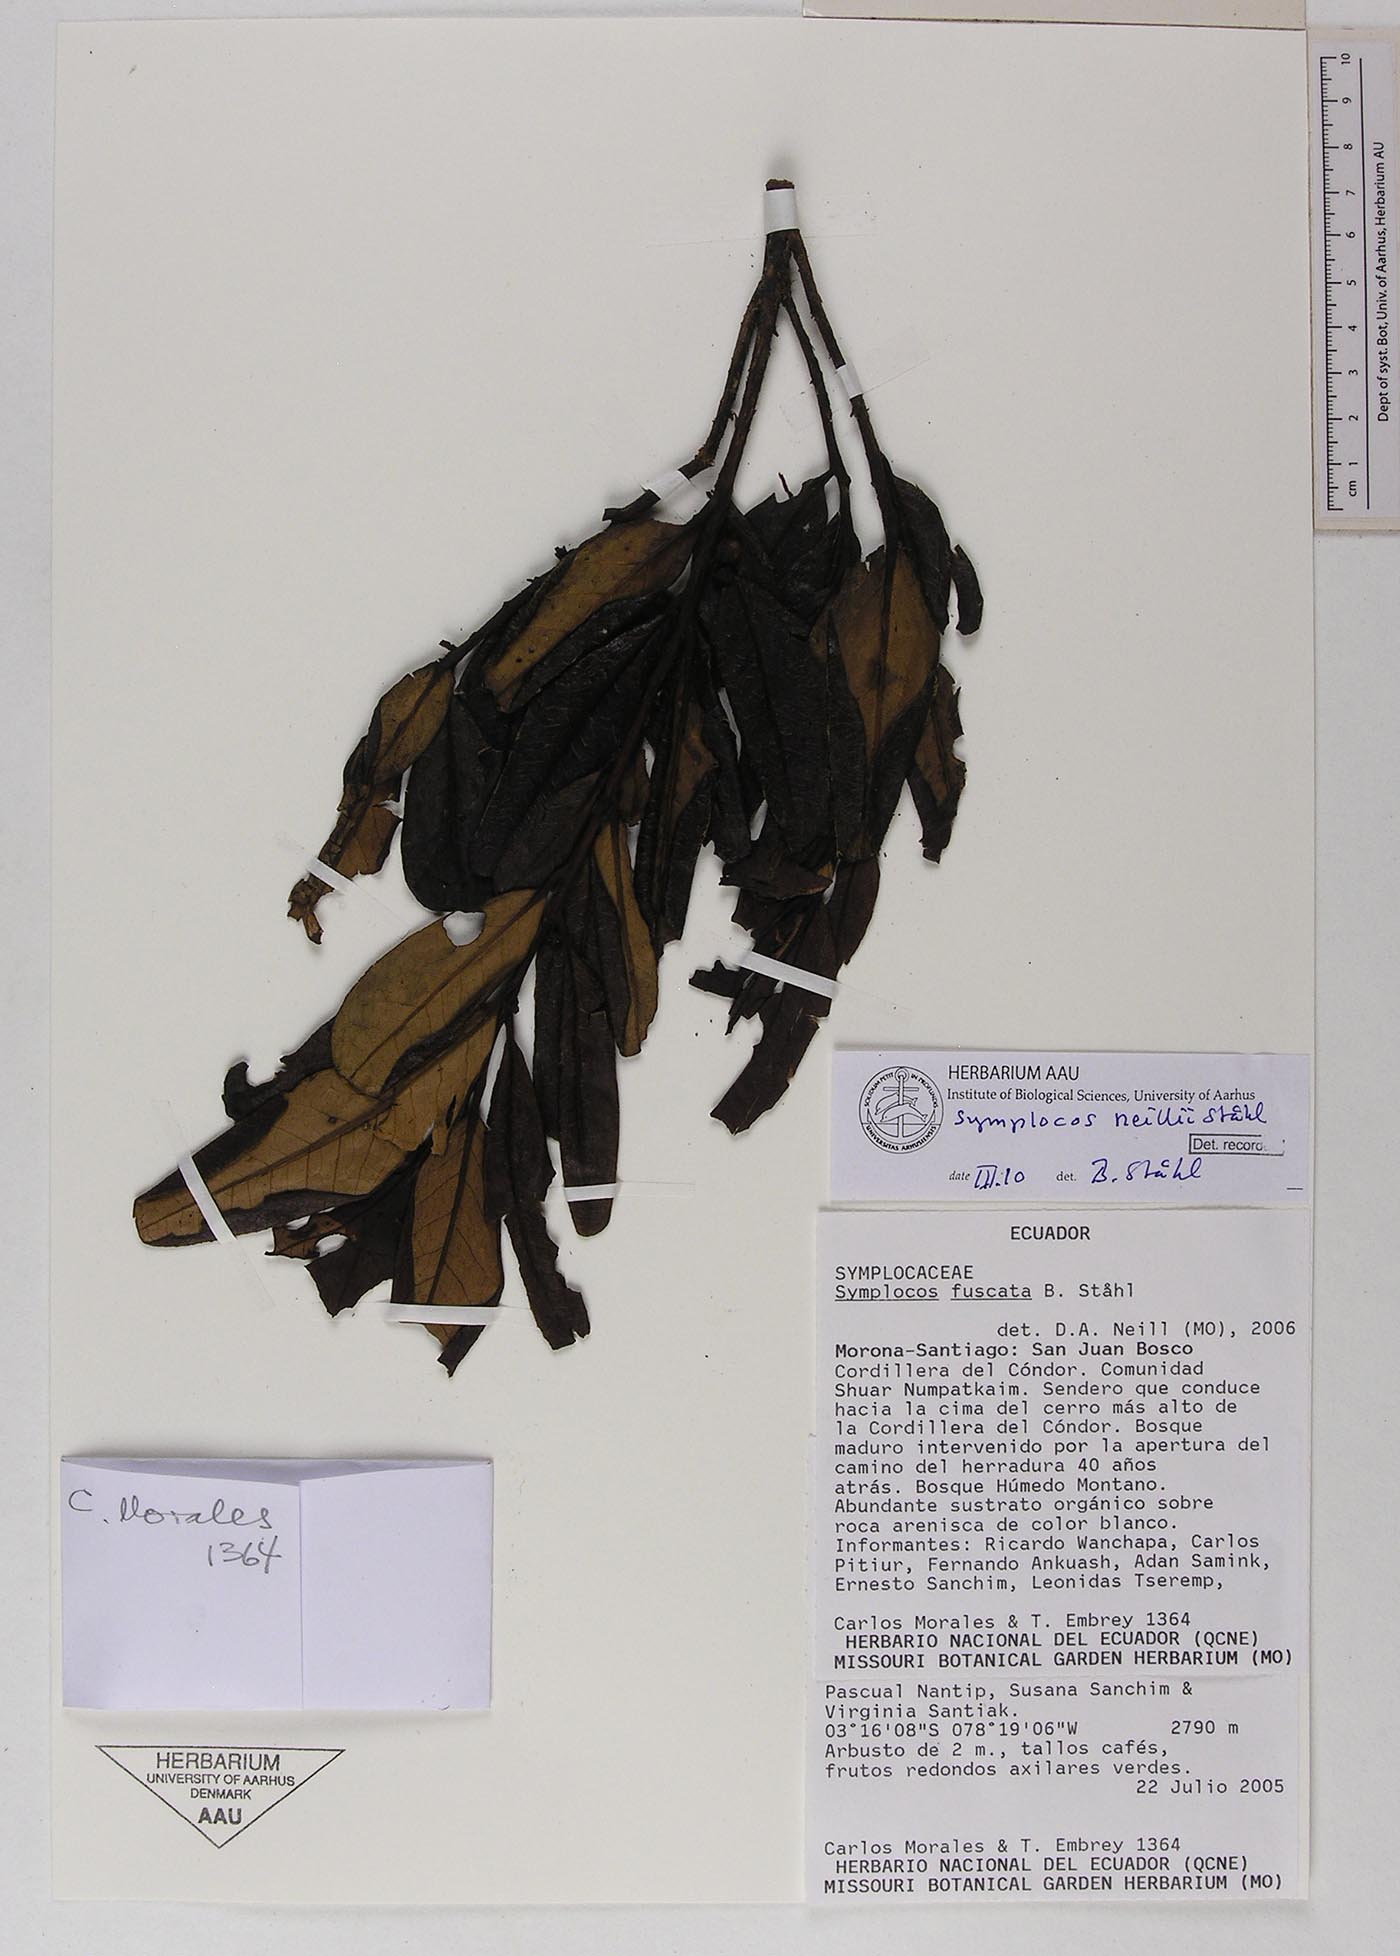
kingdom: Plantae
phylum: Tracheophyta
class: Magnoliopsida
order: Ericales
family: Symplocaceae
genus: Symplocos
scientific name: Symplocos neillii
